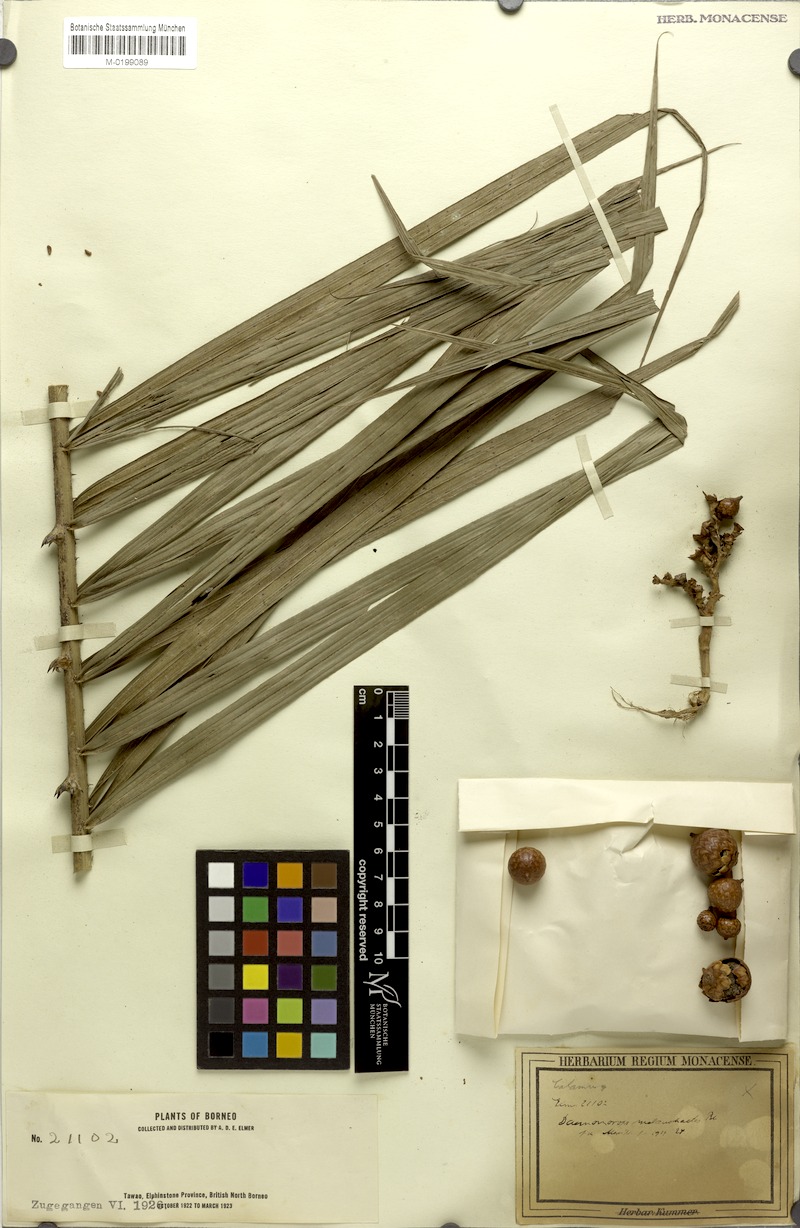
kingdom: Plantae
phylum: Tracheophyta
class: Liliopsida
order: Arecales
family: Arecaceae
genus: Calamus
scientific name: Calamus melanochaetes
